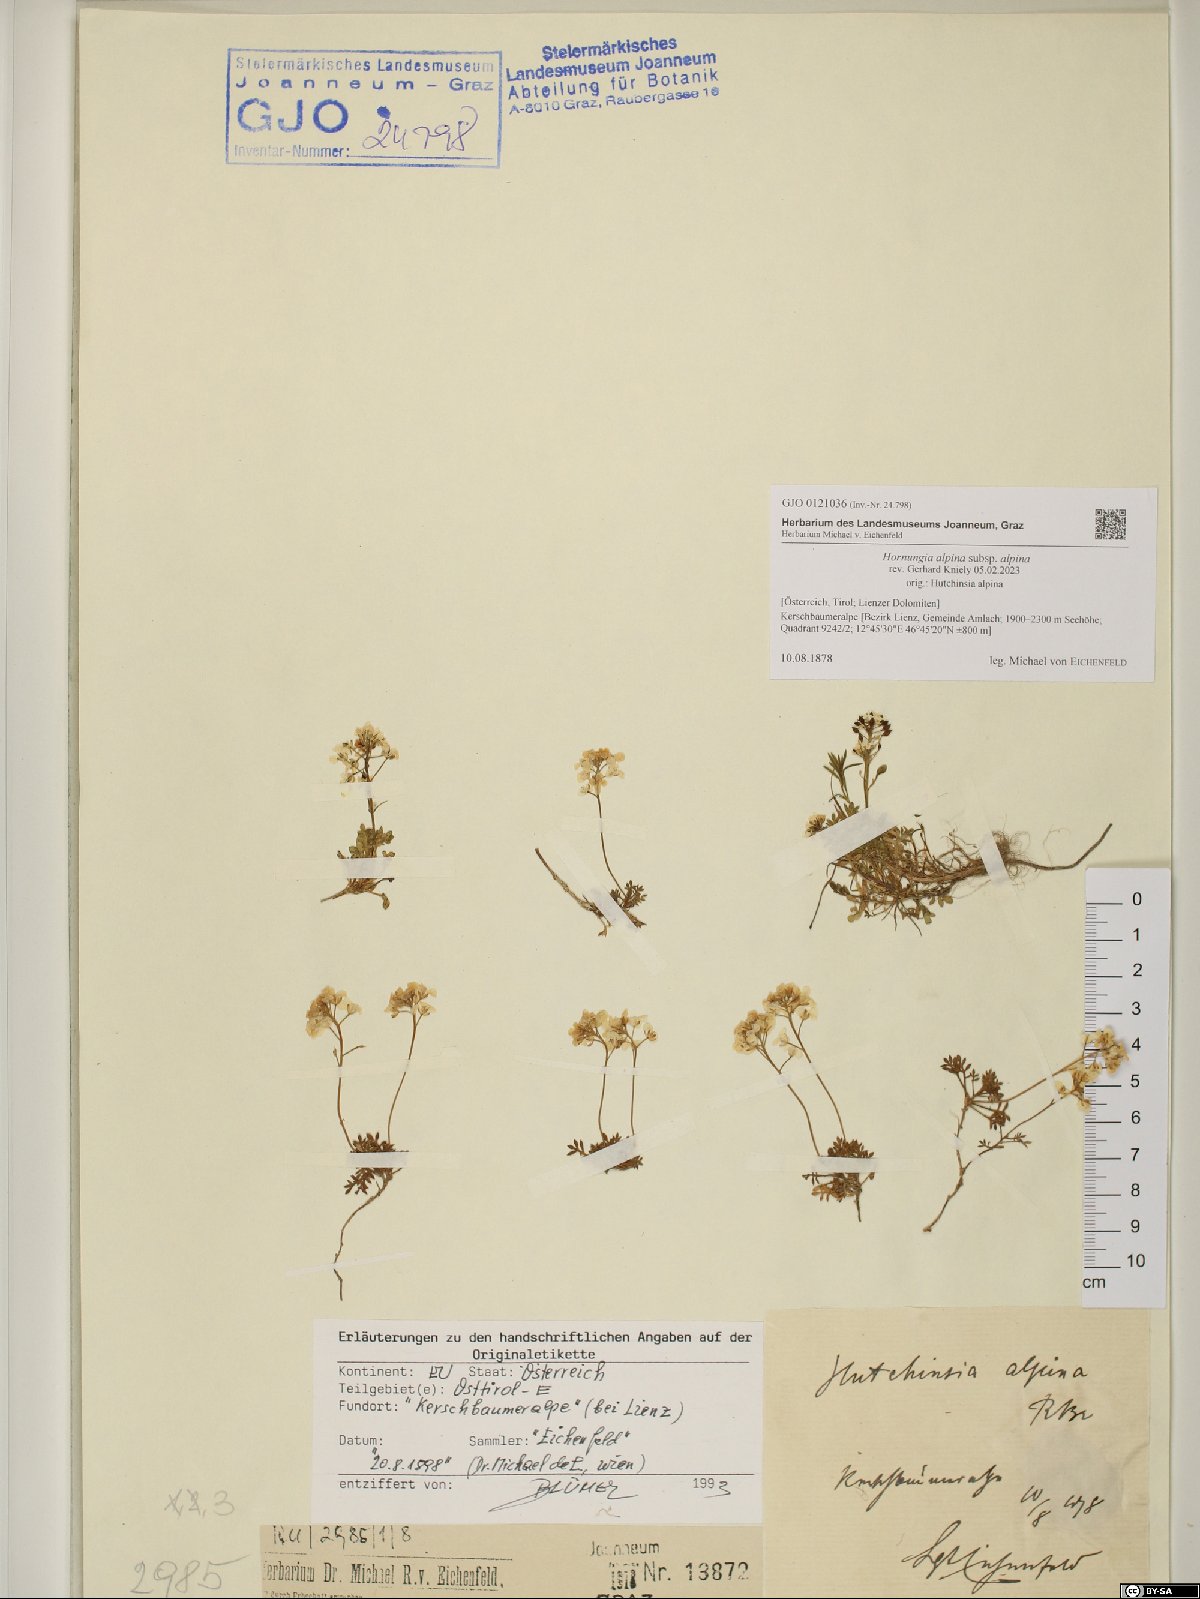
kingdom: Plantae
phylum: Tracheophyta
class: Magnoliopsida
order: Brassicales
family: Brassicaceae
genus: Hornungia
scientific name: Hornungia alpina
